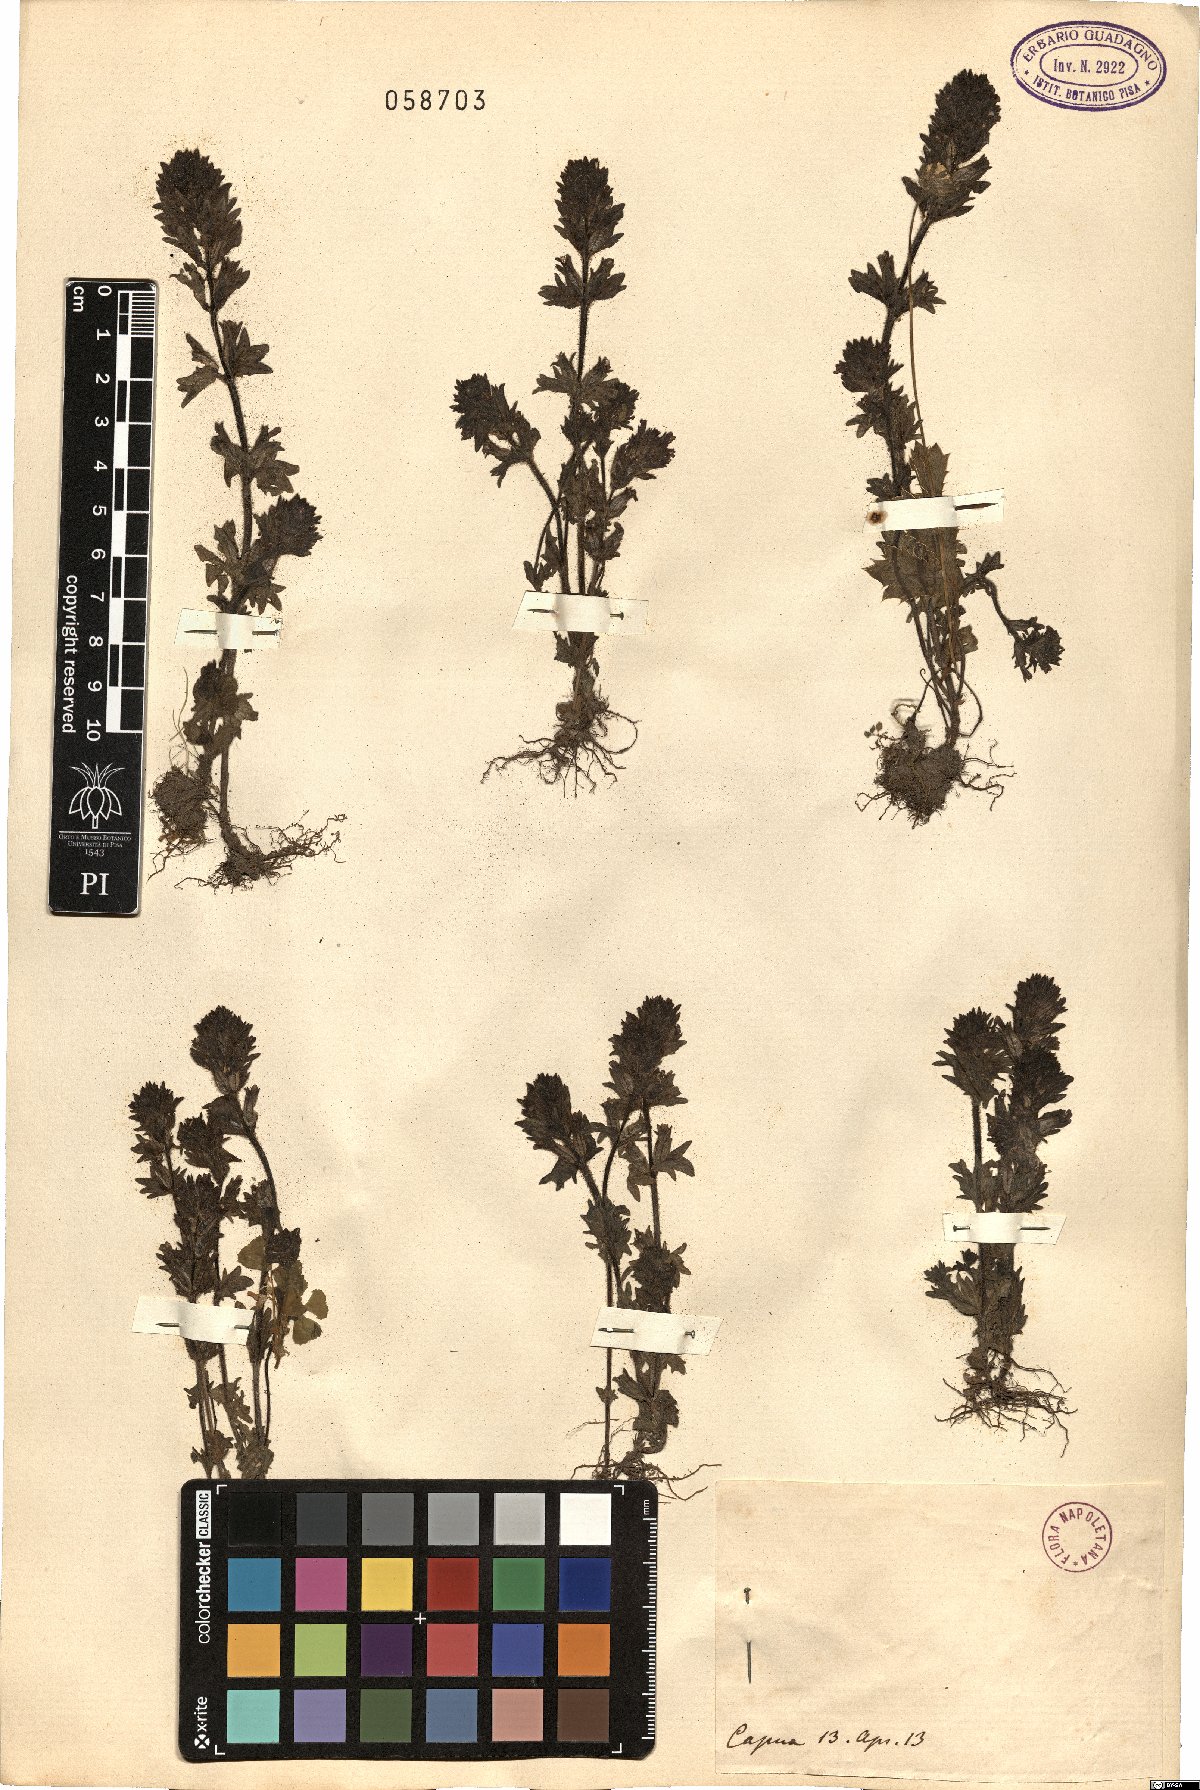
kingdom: Plantae
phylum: Tracheophyta
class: Magnoliopsida
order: Lamiales
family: Orobanchaceae
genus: Bartsia
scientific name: Bartsia
